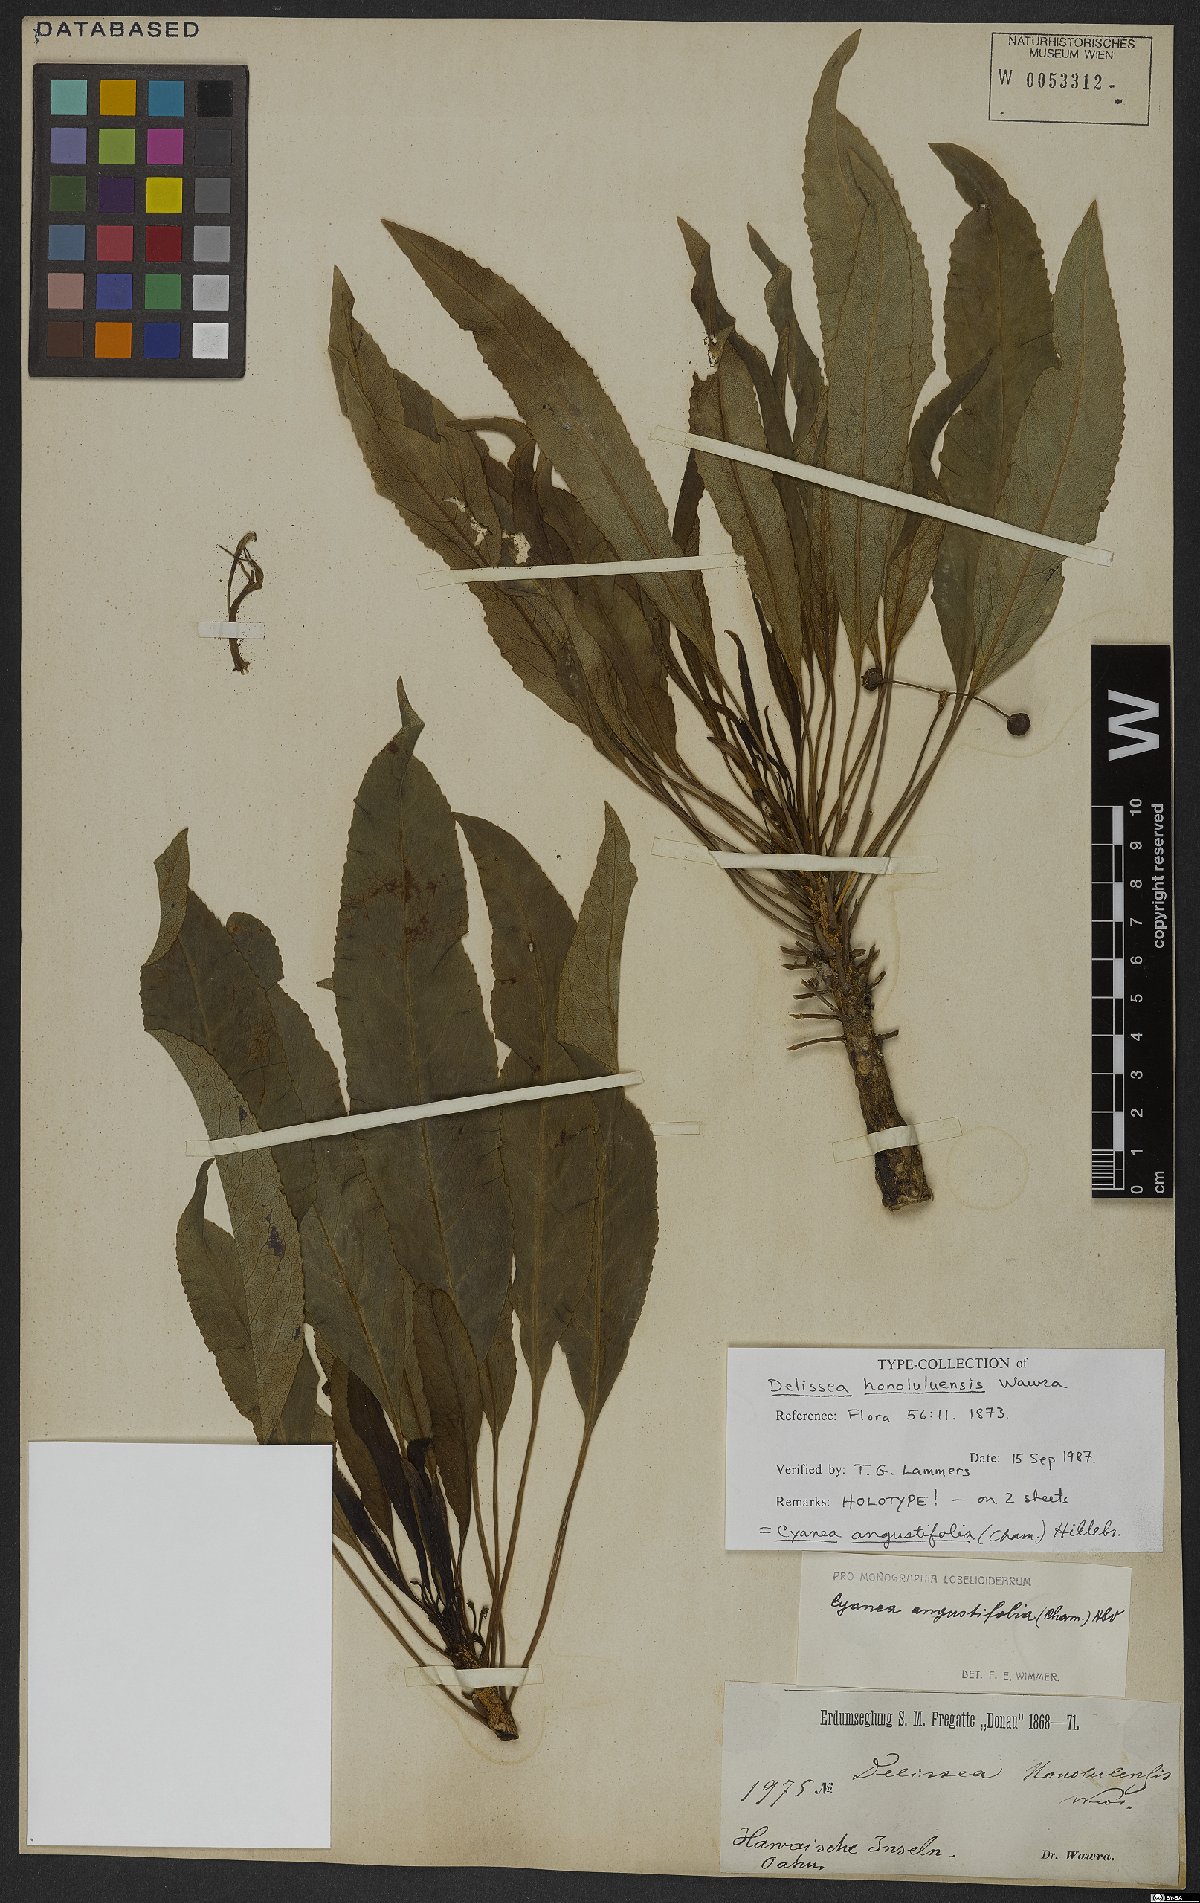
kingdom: Plantae
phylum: Tracheophyta
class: Magnoliopsida
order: Asterales
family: Campanulaceae
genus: Cyanea
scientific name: Cyanea angustifolia
